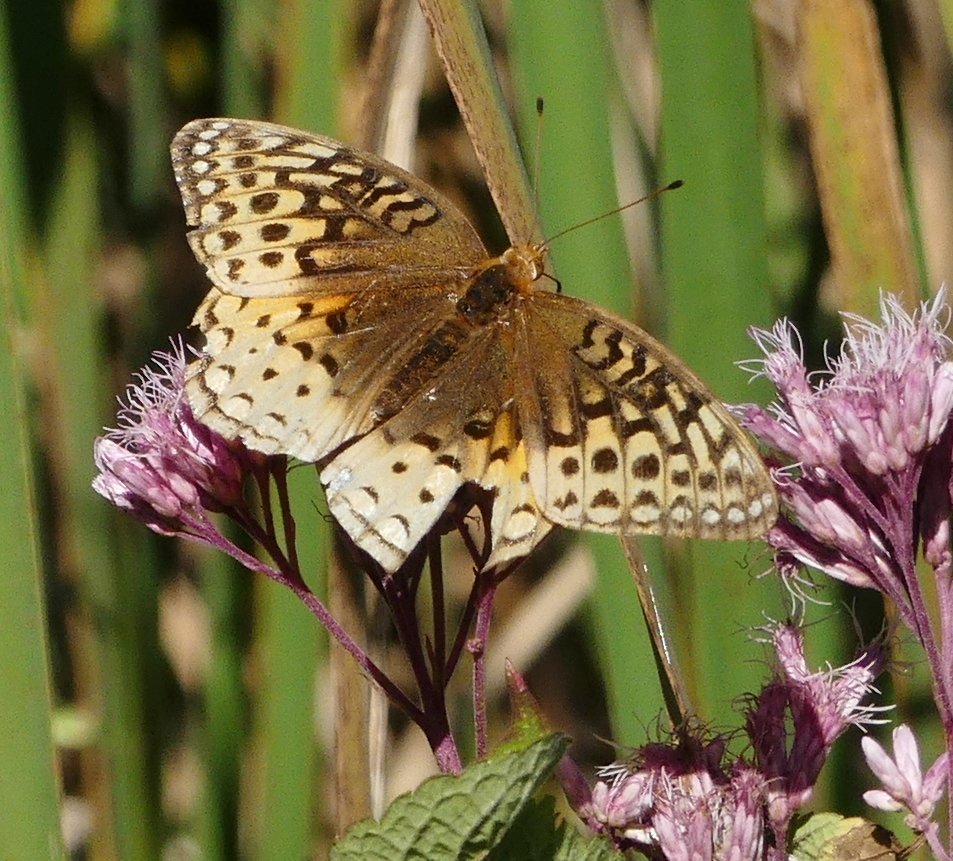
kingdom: Animalia
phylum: Arthropoda
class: Insecta
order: Lepidoptera
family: Nymphalidae
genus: Speyeria
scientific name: Speyeria cybele
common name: Great Spangled Fritillary
